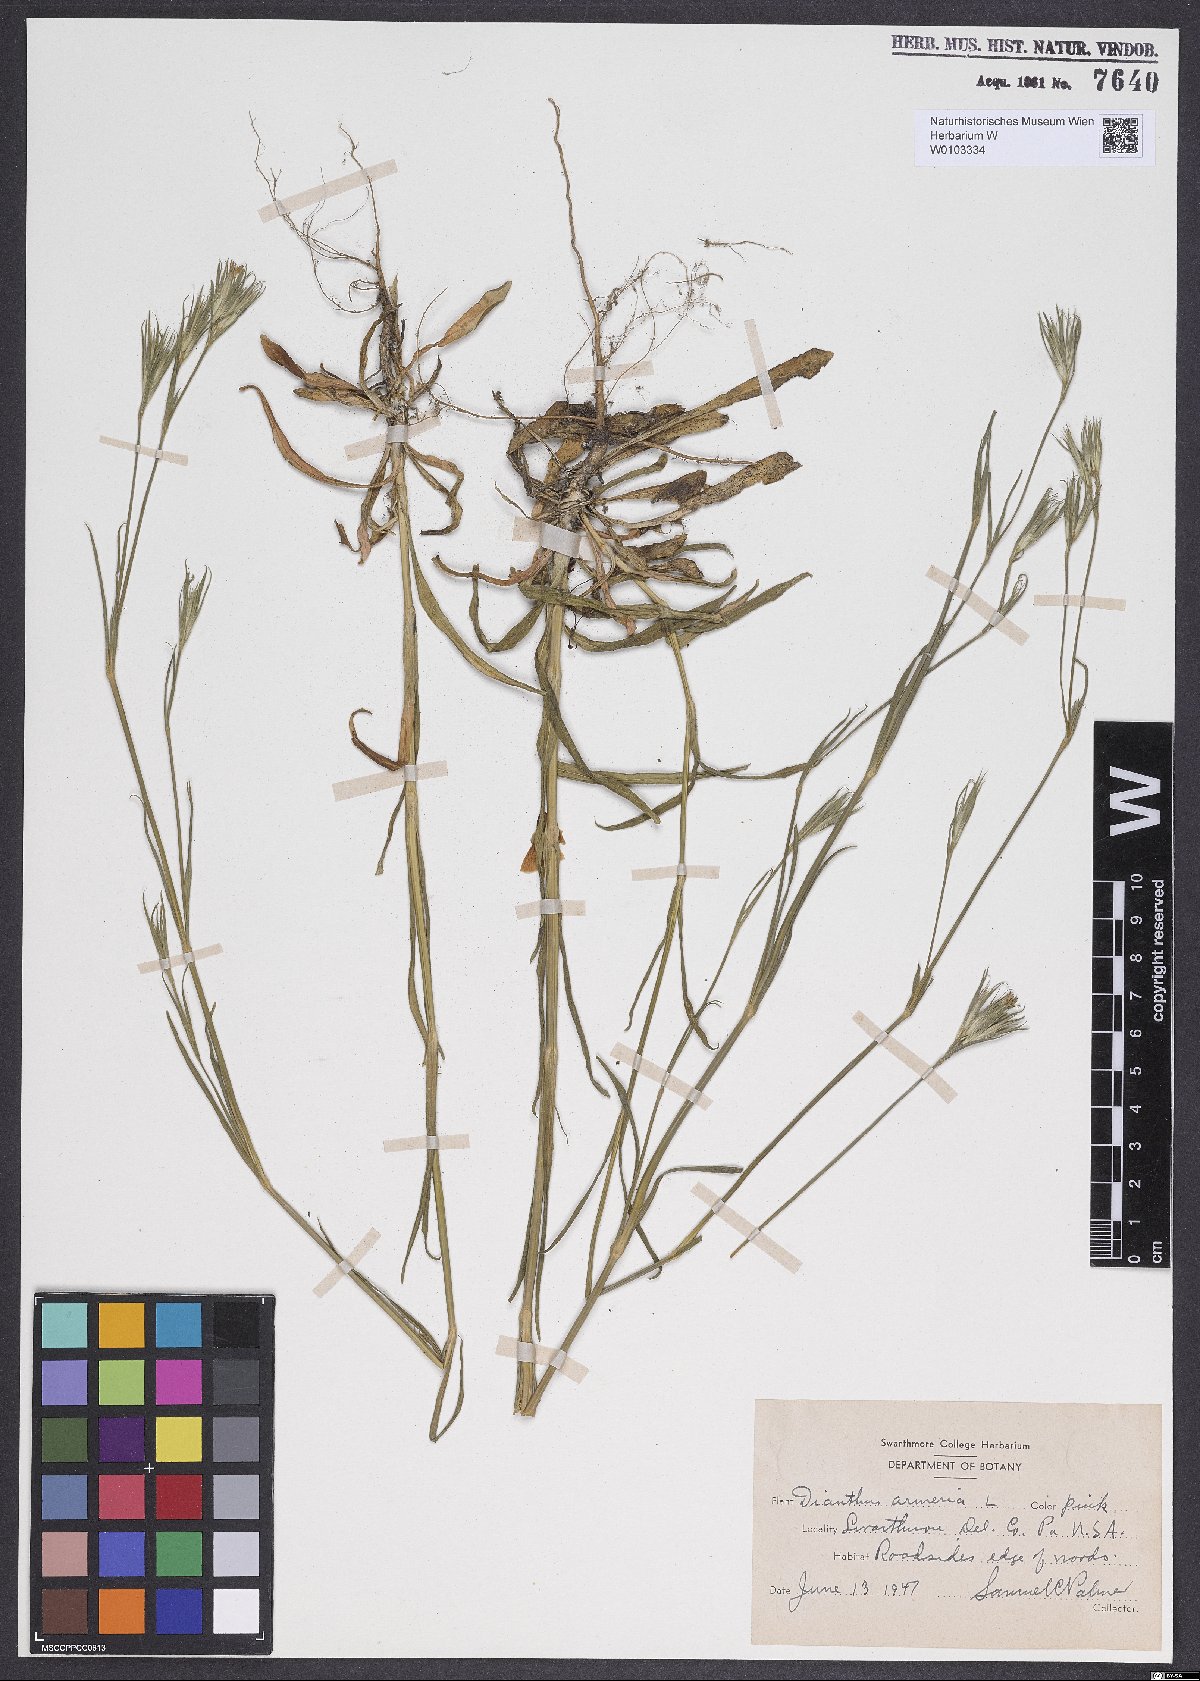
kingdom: Plantae
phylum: Tracheophyta
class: Magnoliopsida
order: Caryophyllales
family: Caryophyllaceae
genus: Dianthus
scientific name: Dianthus armeria
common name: Deptford pink
